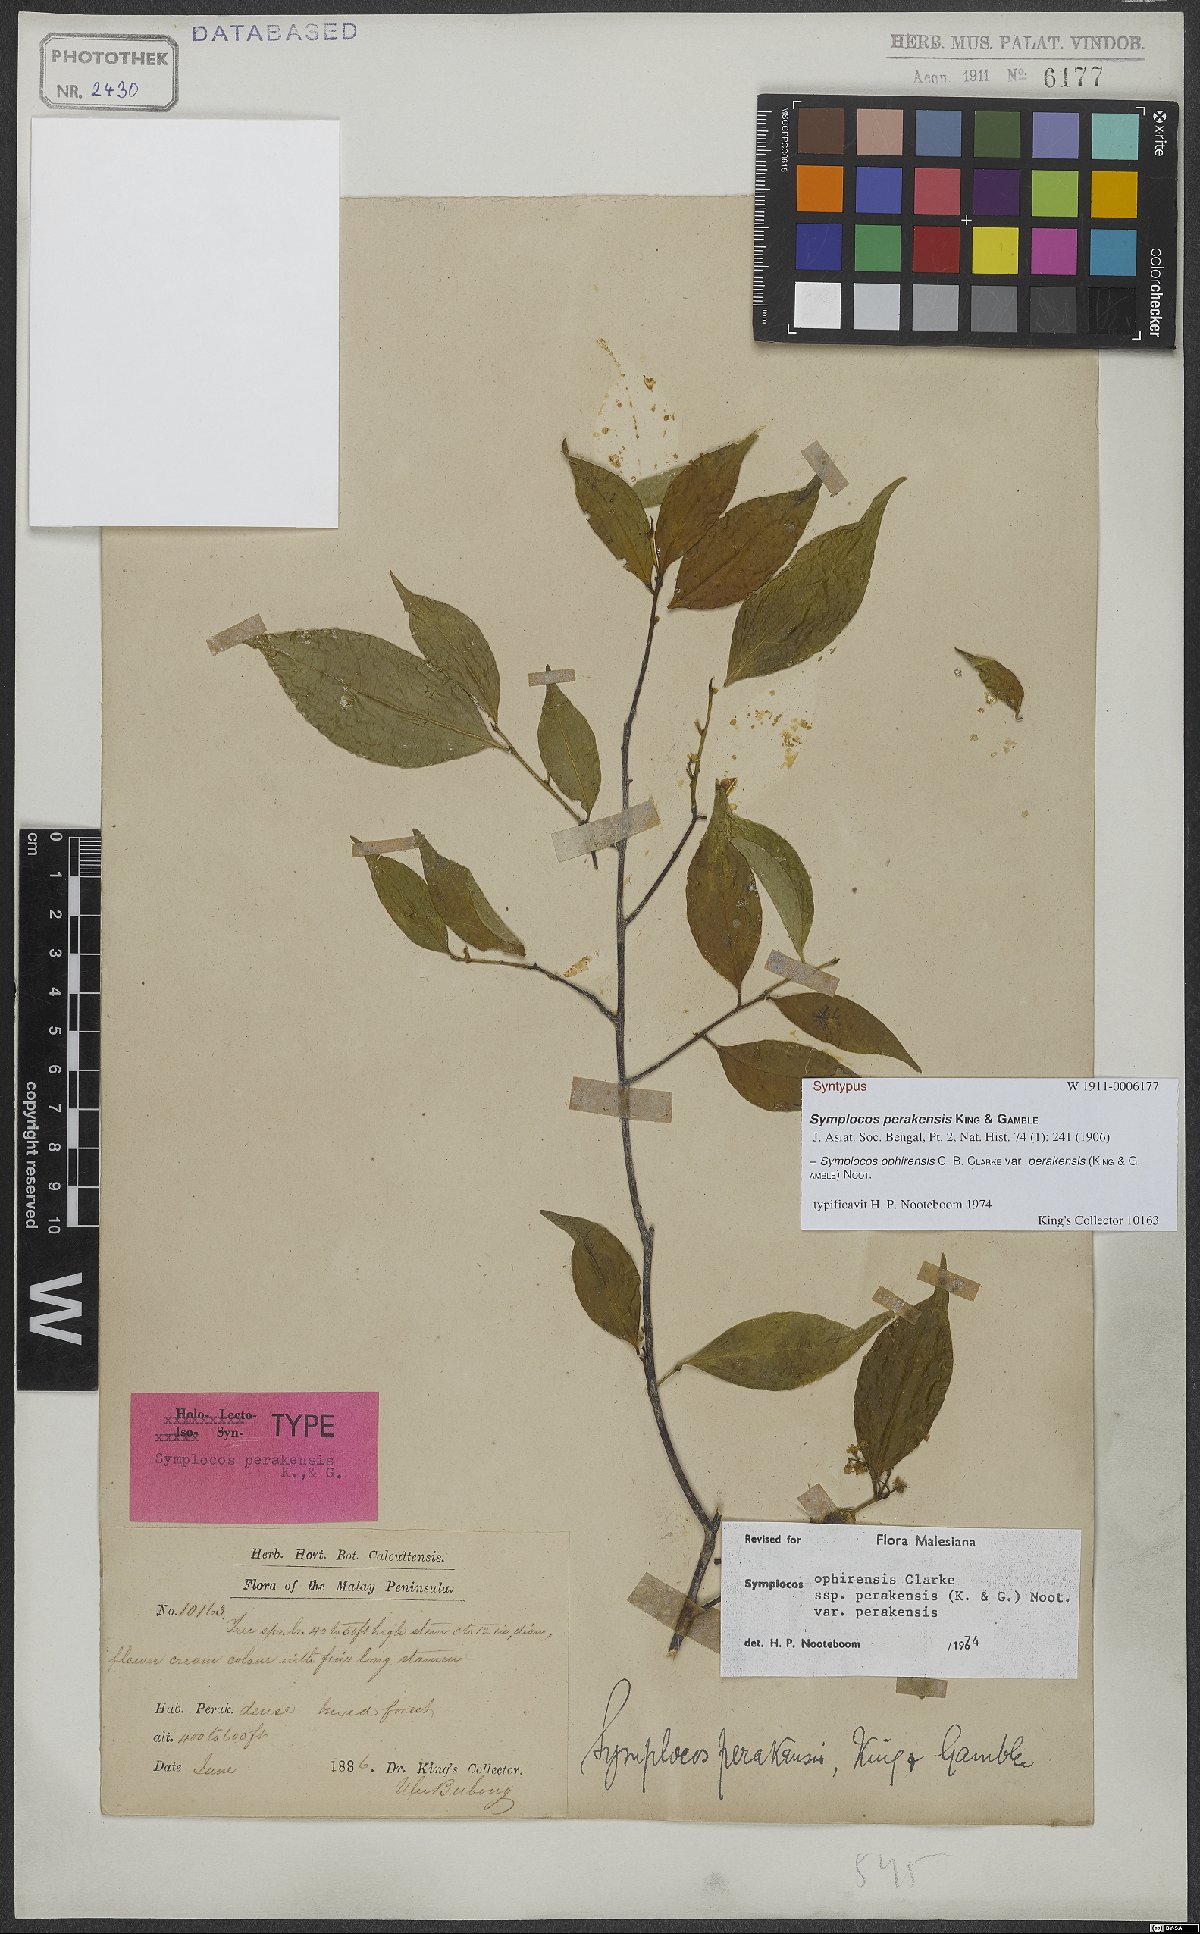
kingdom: Plantae
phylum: Tracheophyta
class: Magnoliopsida
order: Ericales
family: Symplocaceae
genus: Symplocos
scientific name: Symplocos ophirensis
